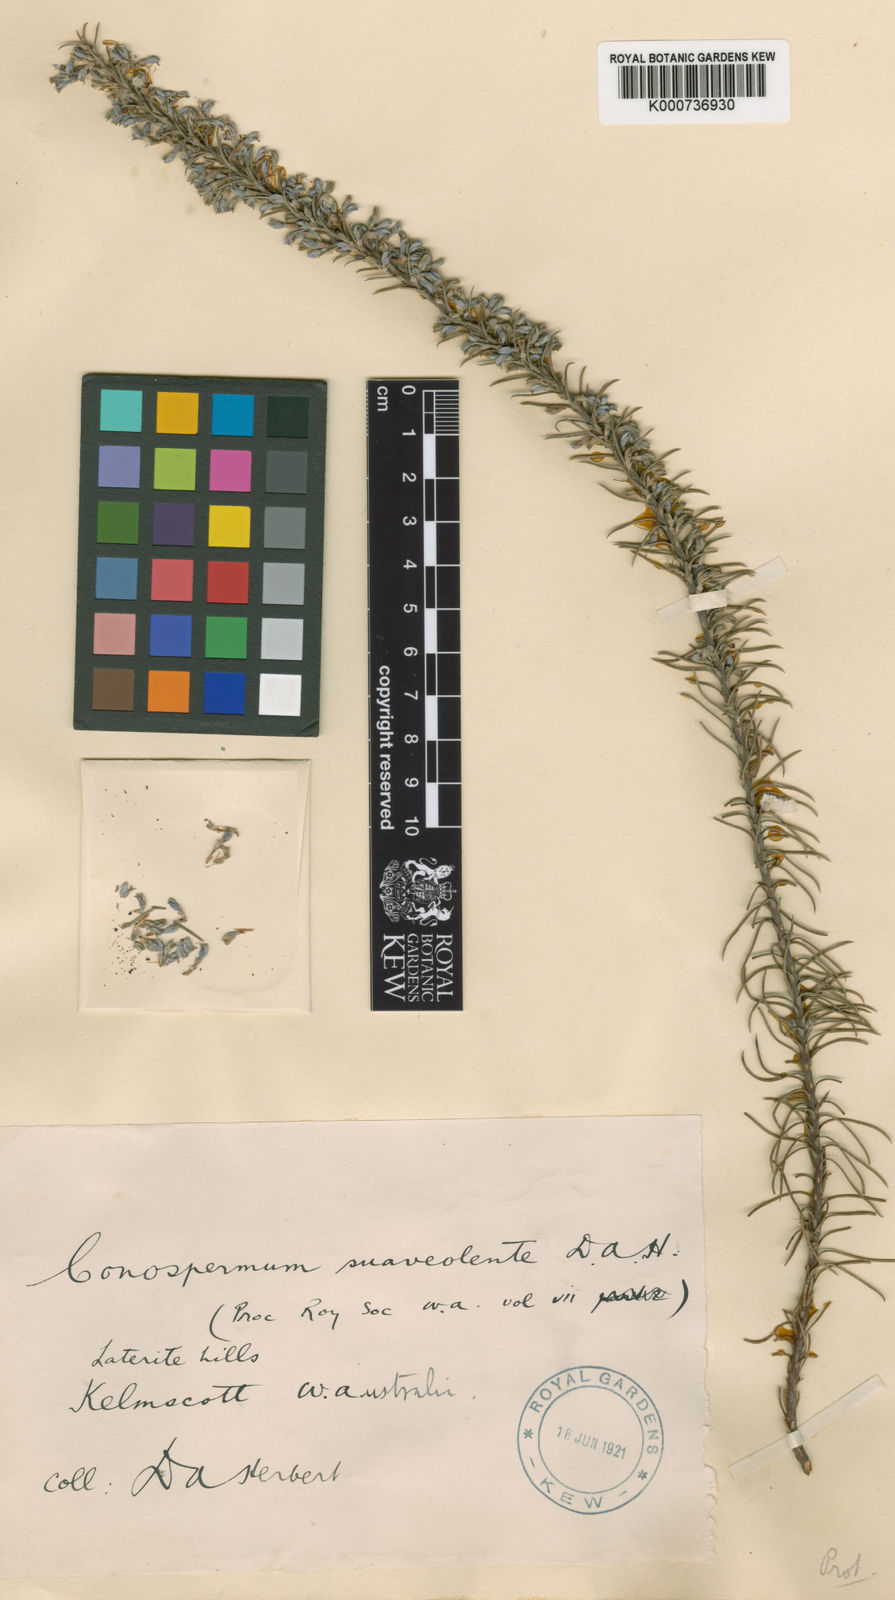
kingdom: Plantae
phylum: Tracheophyta
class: Magnoliopsida
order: Proteales
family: Proteaceae
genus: Conospermum
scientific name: Conospermum
